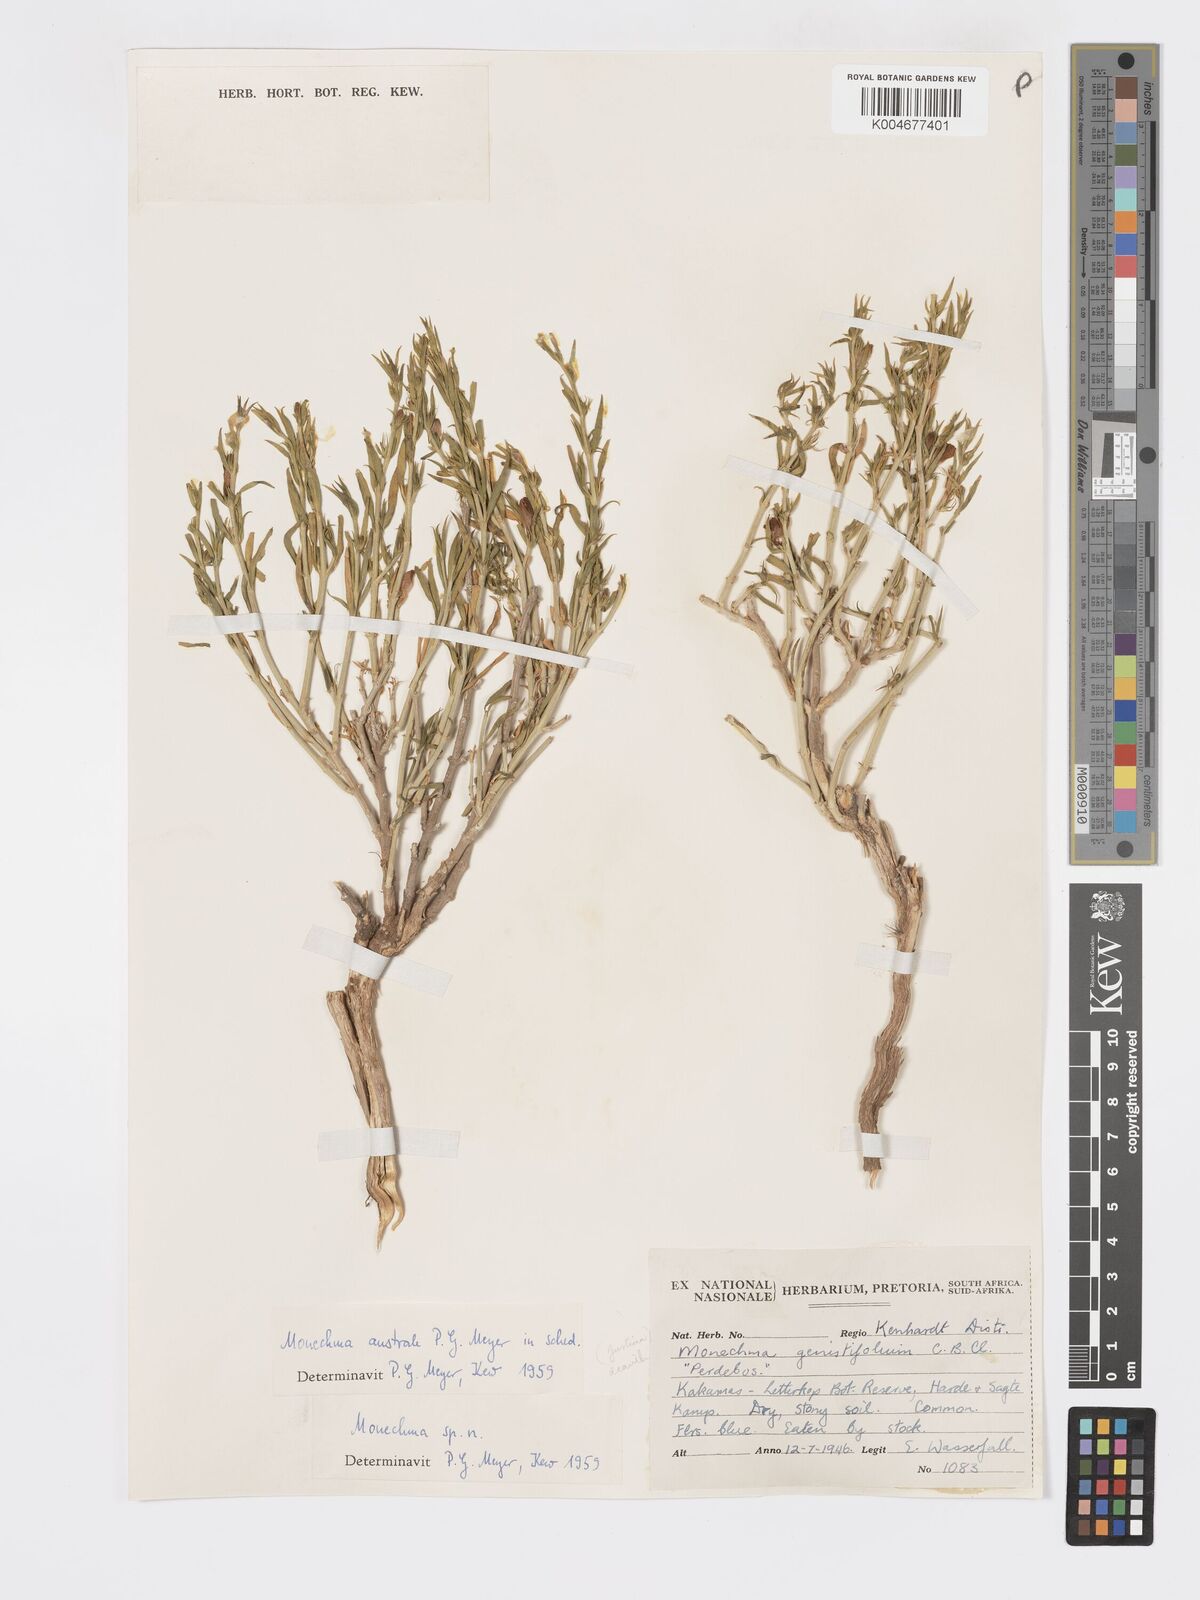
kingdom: Plantae
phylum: Tracheophyta
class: Magnoliopsida
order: Lamiales
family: Acanthaceae
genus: Pogonospermum
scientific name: Pogonospermum
